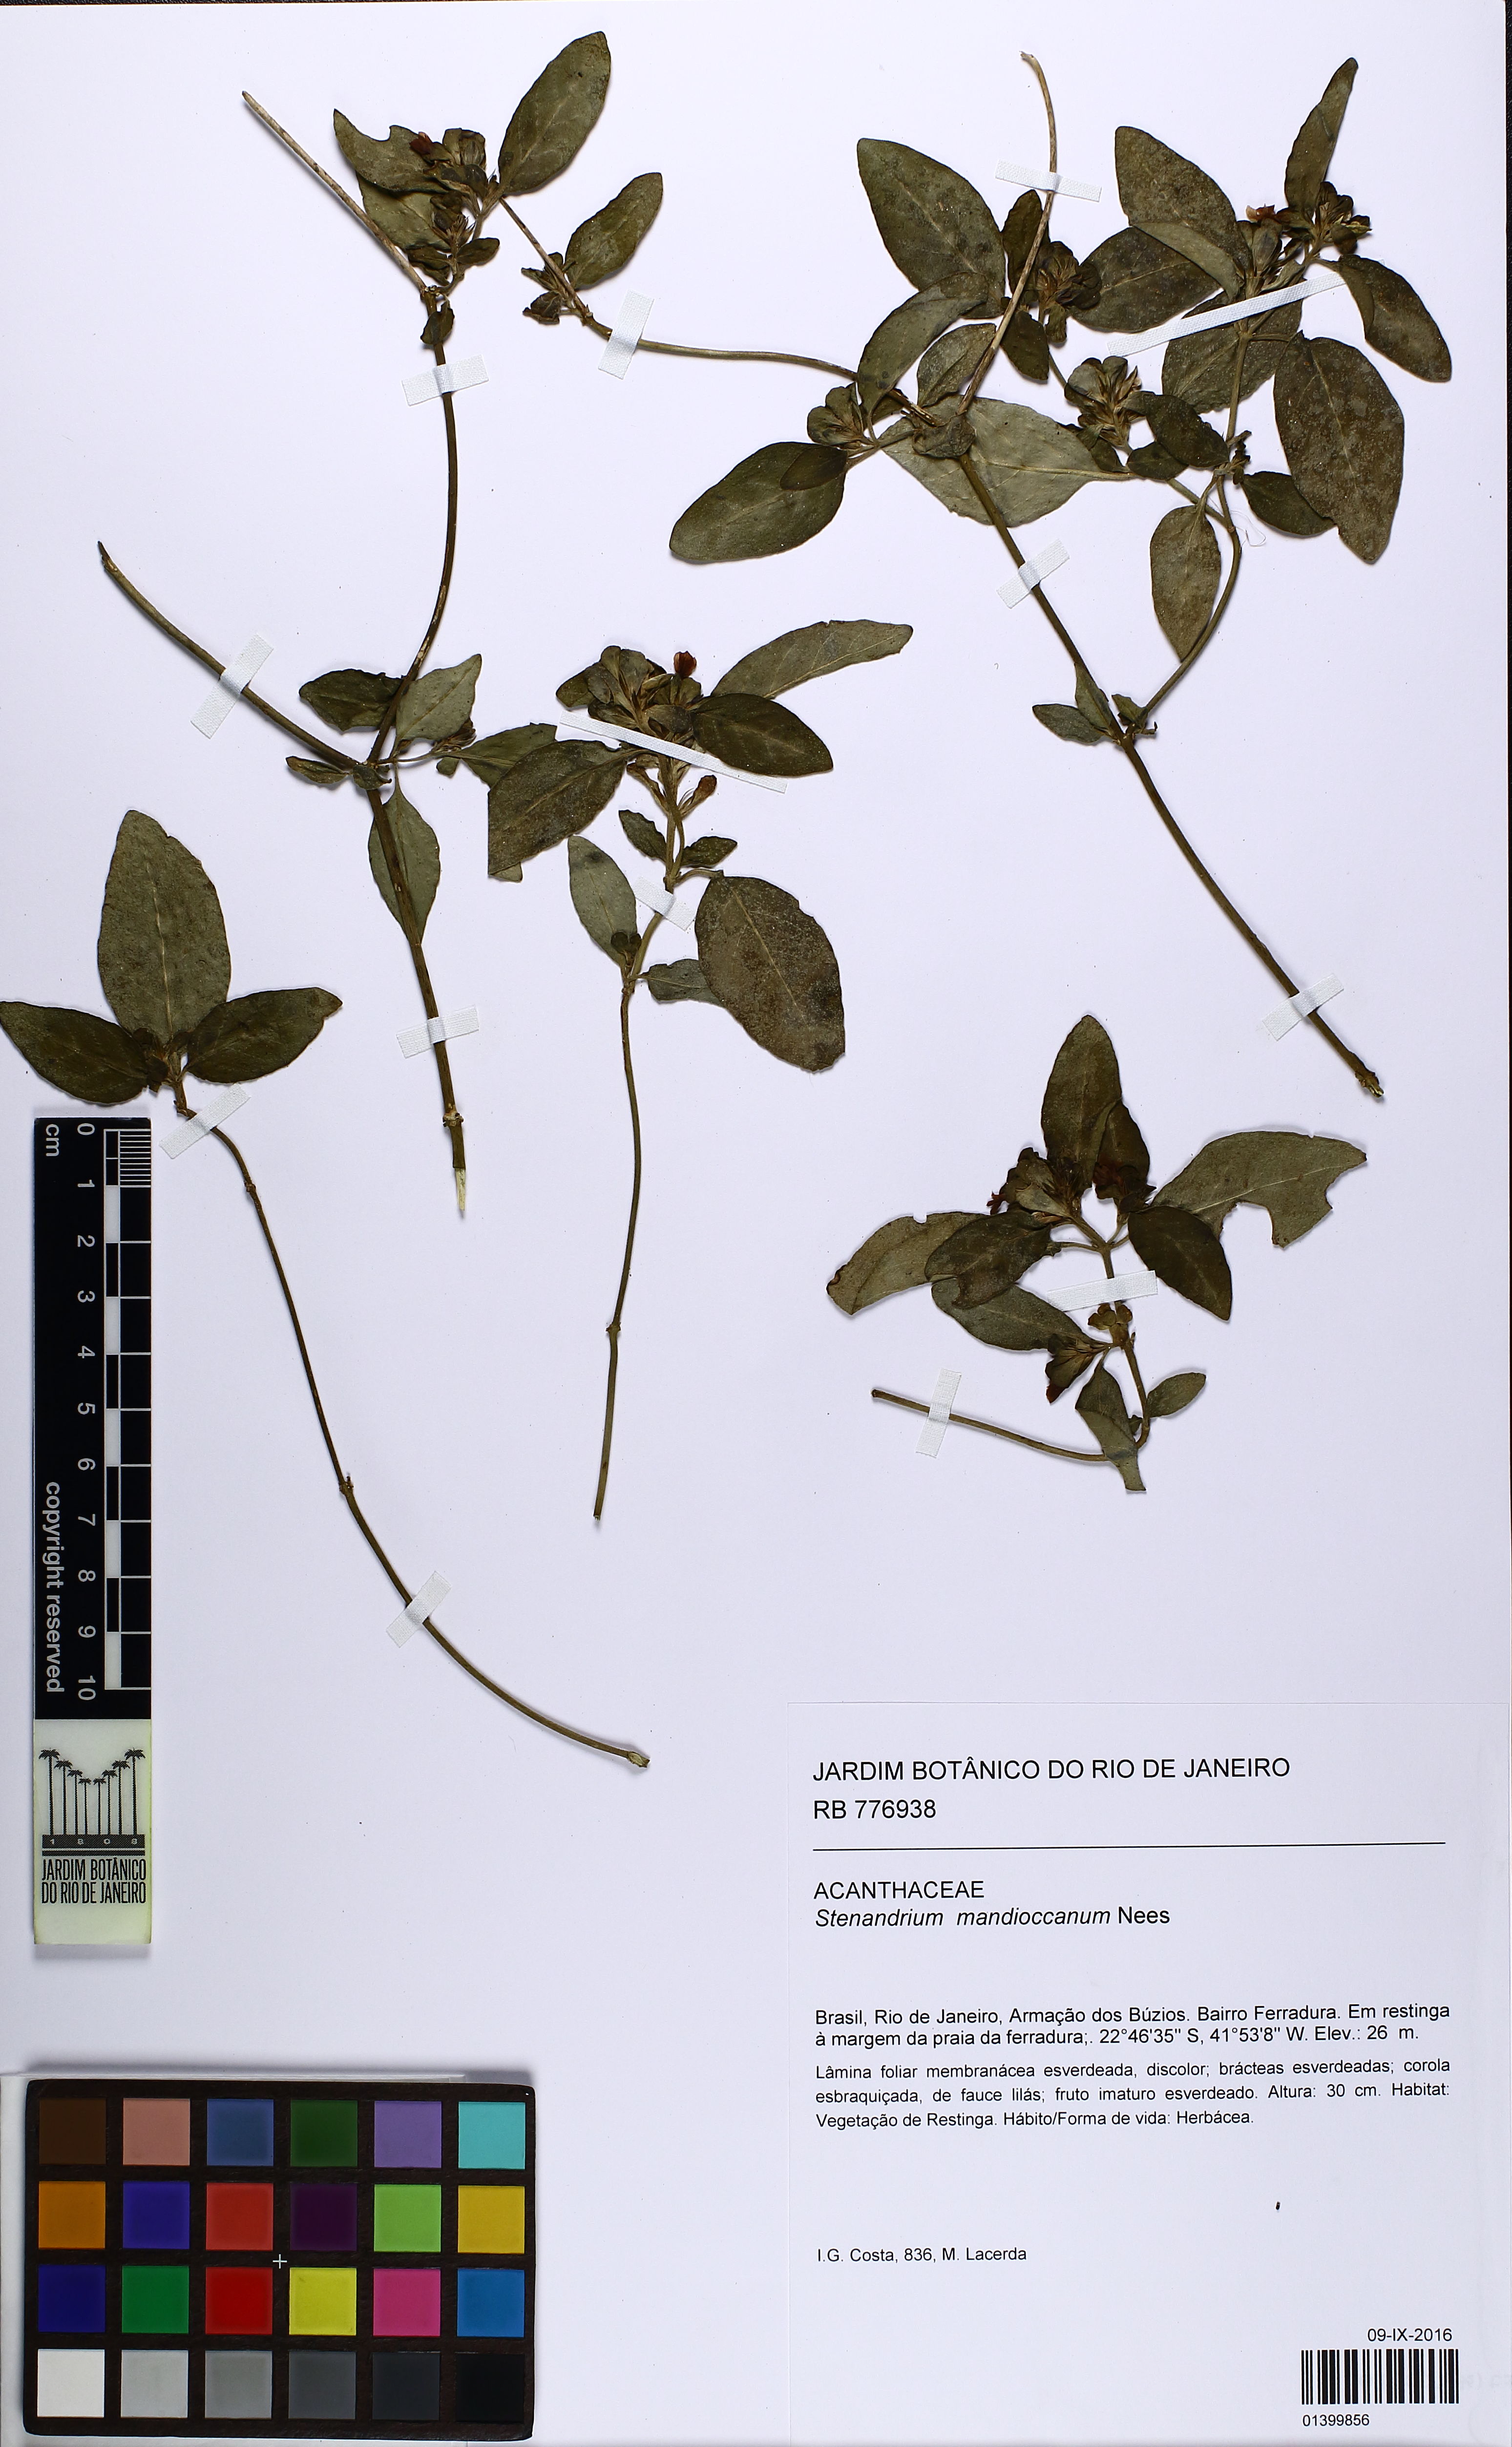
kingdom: Plantae
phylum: Tracheophyta
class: Magnoliopsida
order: Lamiales
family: Acanthaceae
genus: Stenandrium
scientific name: Stenandrium mandioccanum
